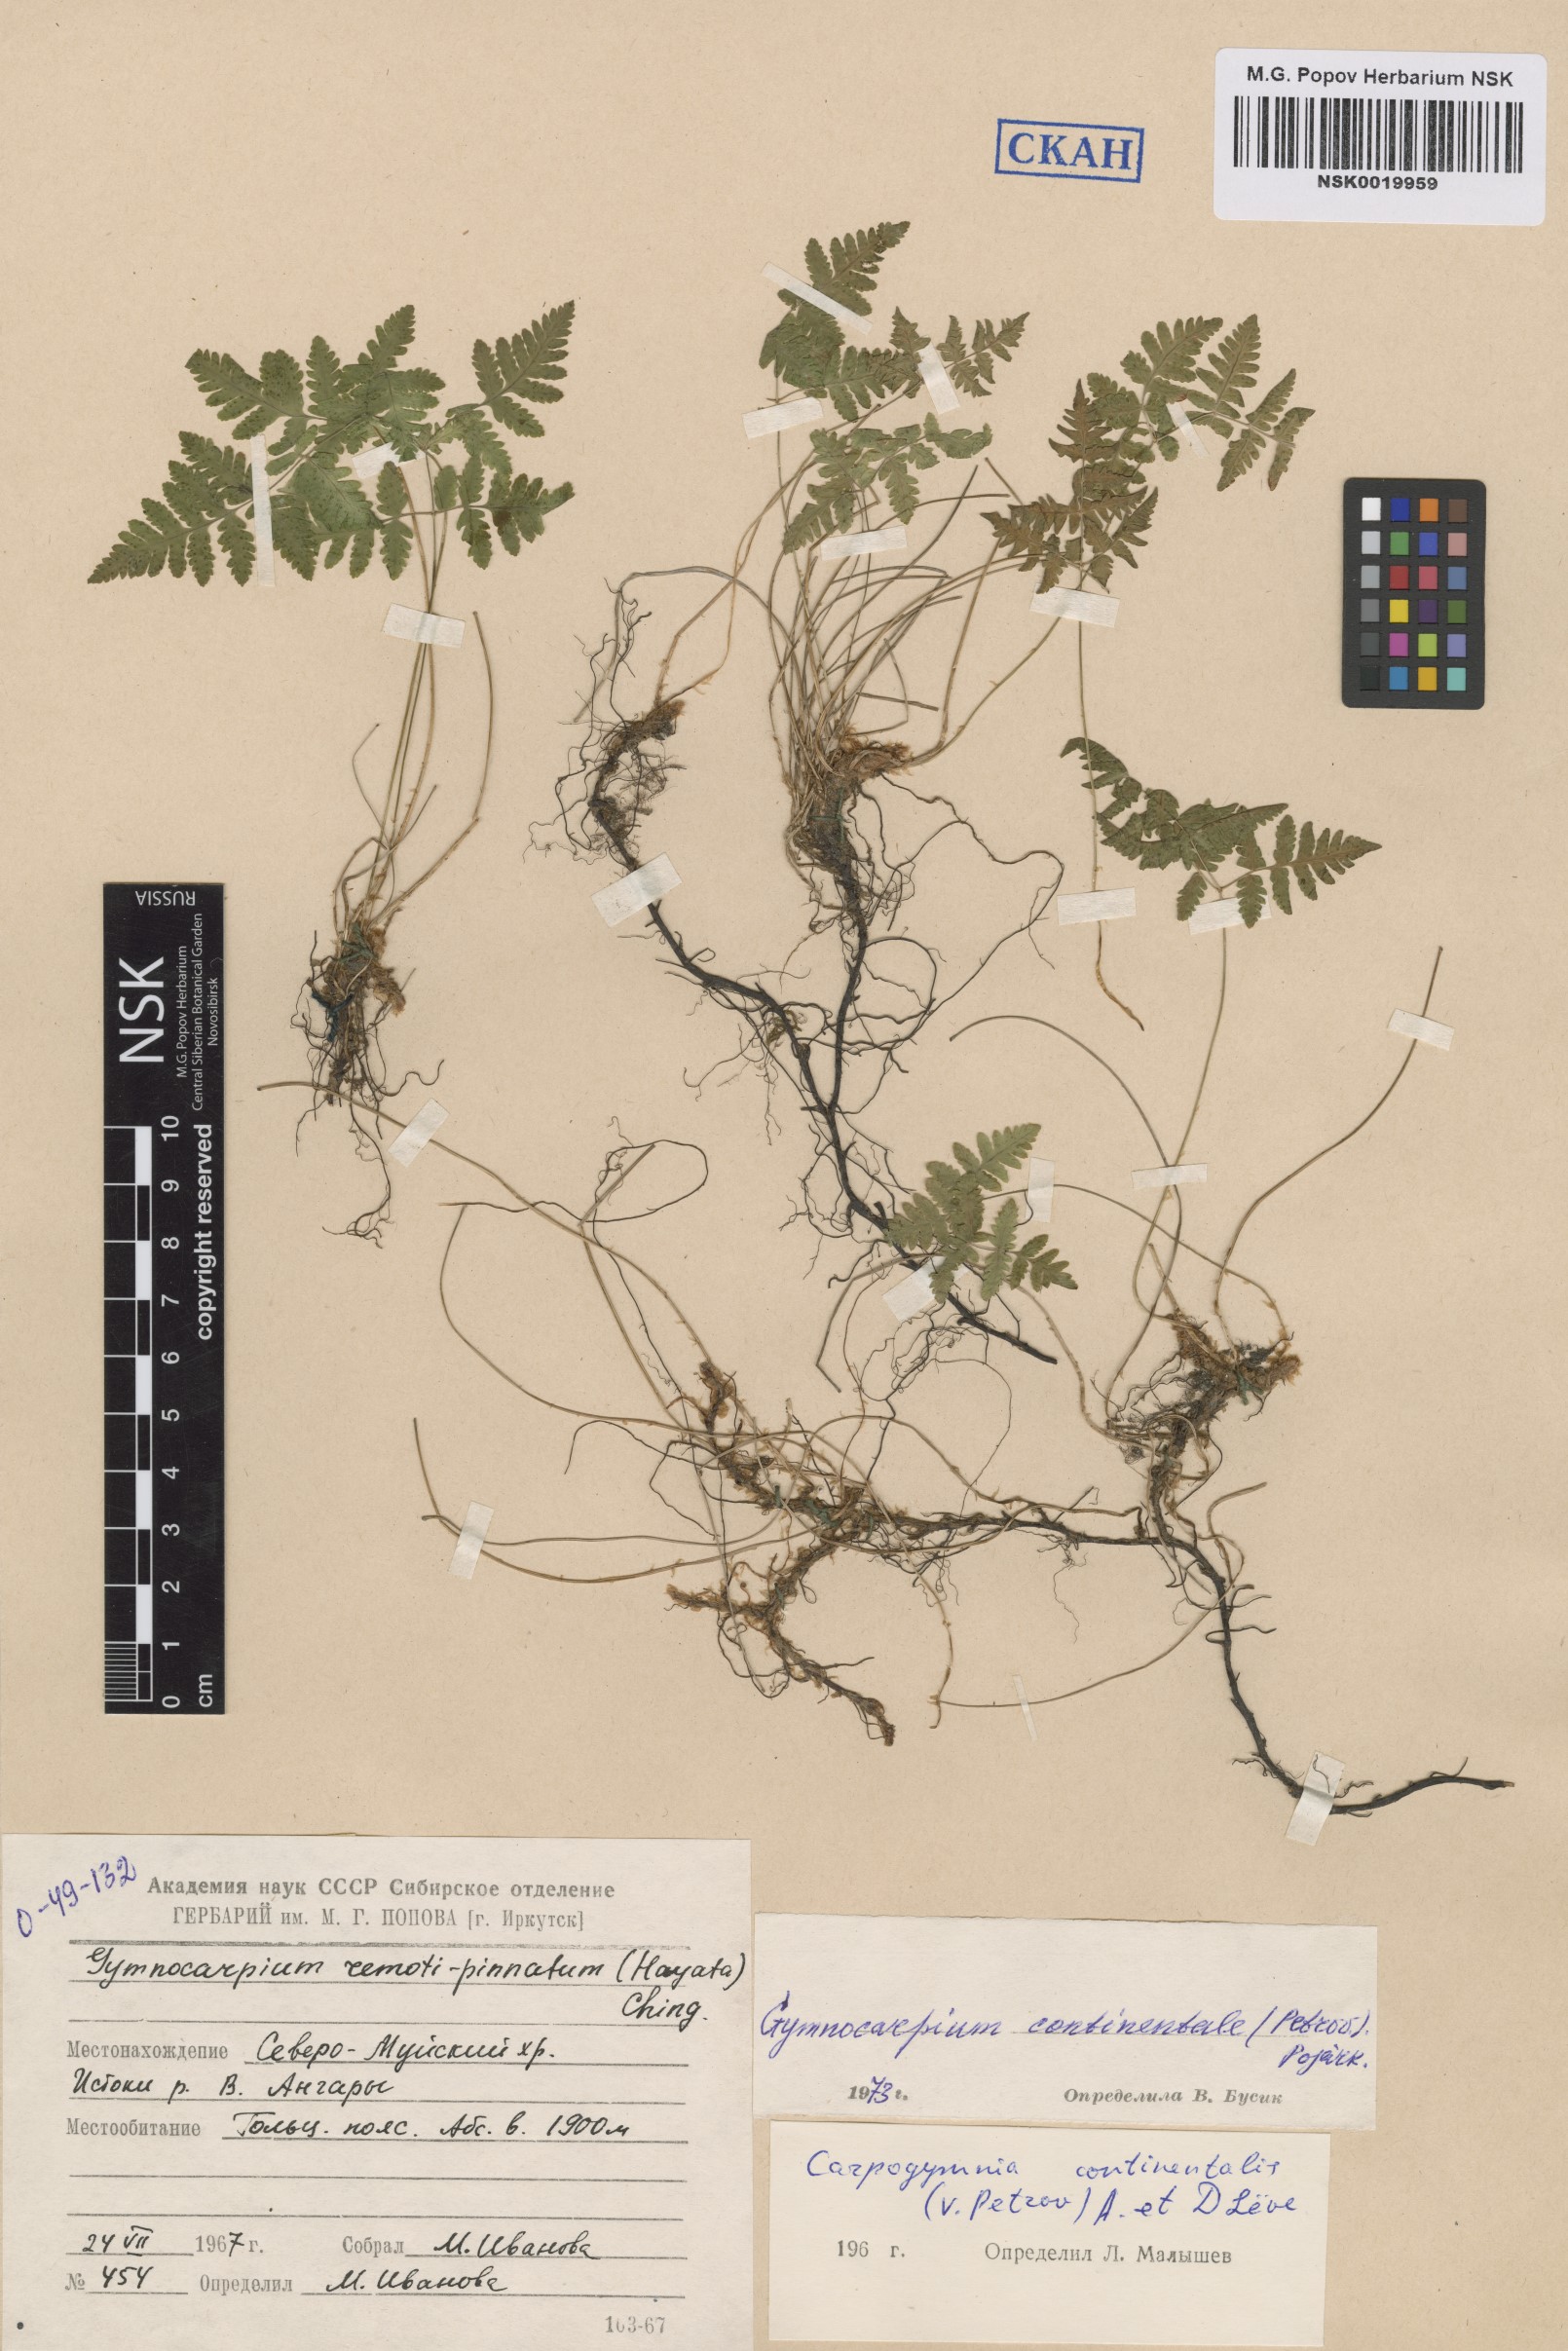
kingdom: Plantae
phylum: Tracheophyta
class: Polypodiopsida
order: Polypodiales
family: Cystopteridaceae
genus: Gymnocarpium
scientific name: Gymnocarpium continentale
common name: Asian oak fern
